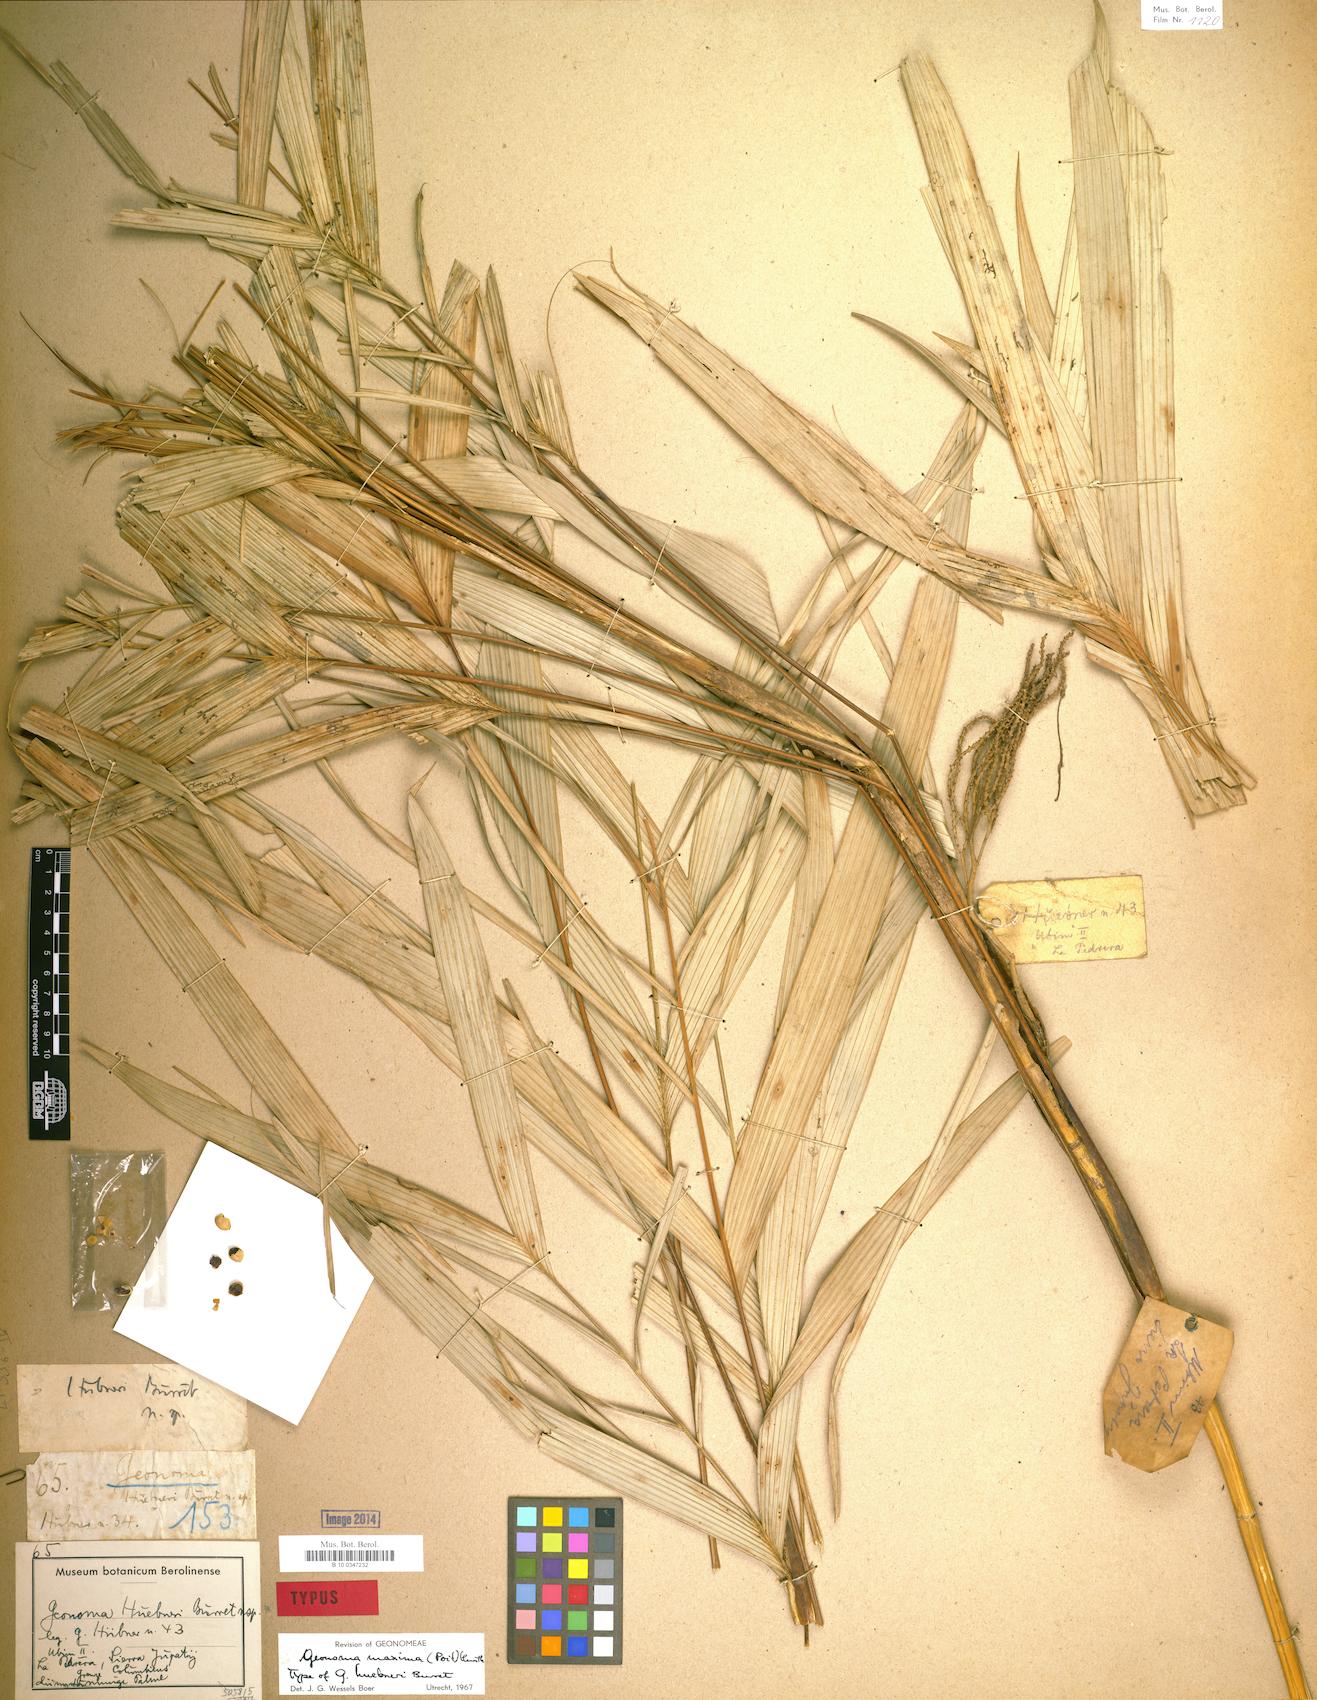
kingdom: Plantae
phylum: Tracheophyta
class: Liliopsida
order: Arecales
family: Arecaceae
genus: Geonoma
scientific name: Geonoma maxima
